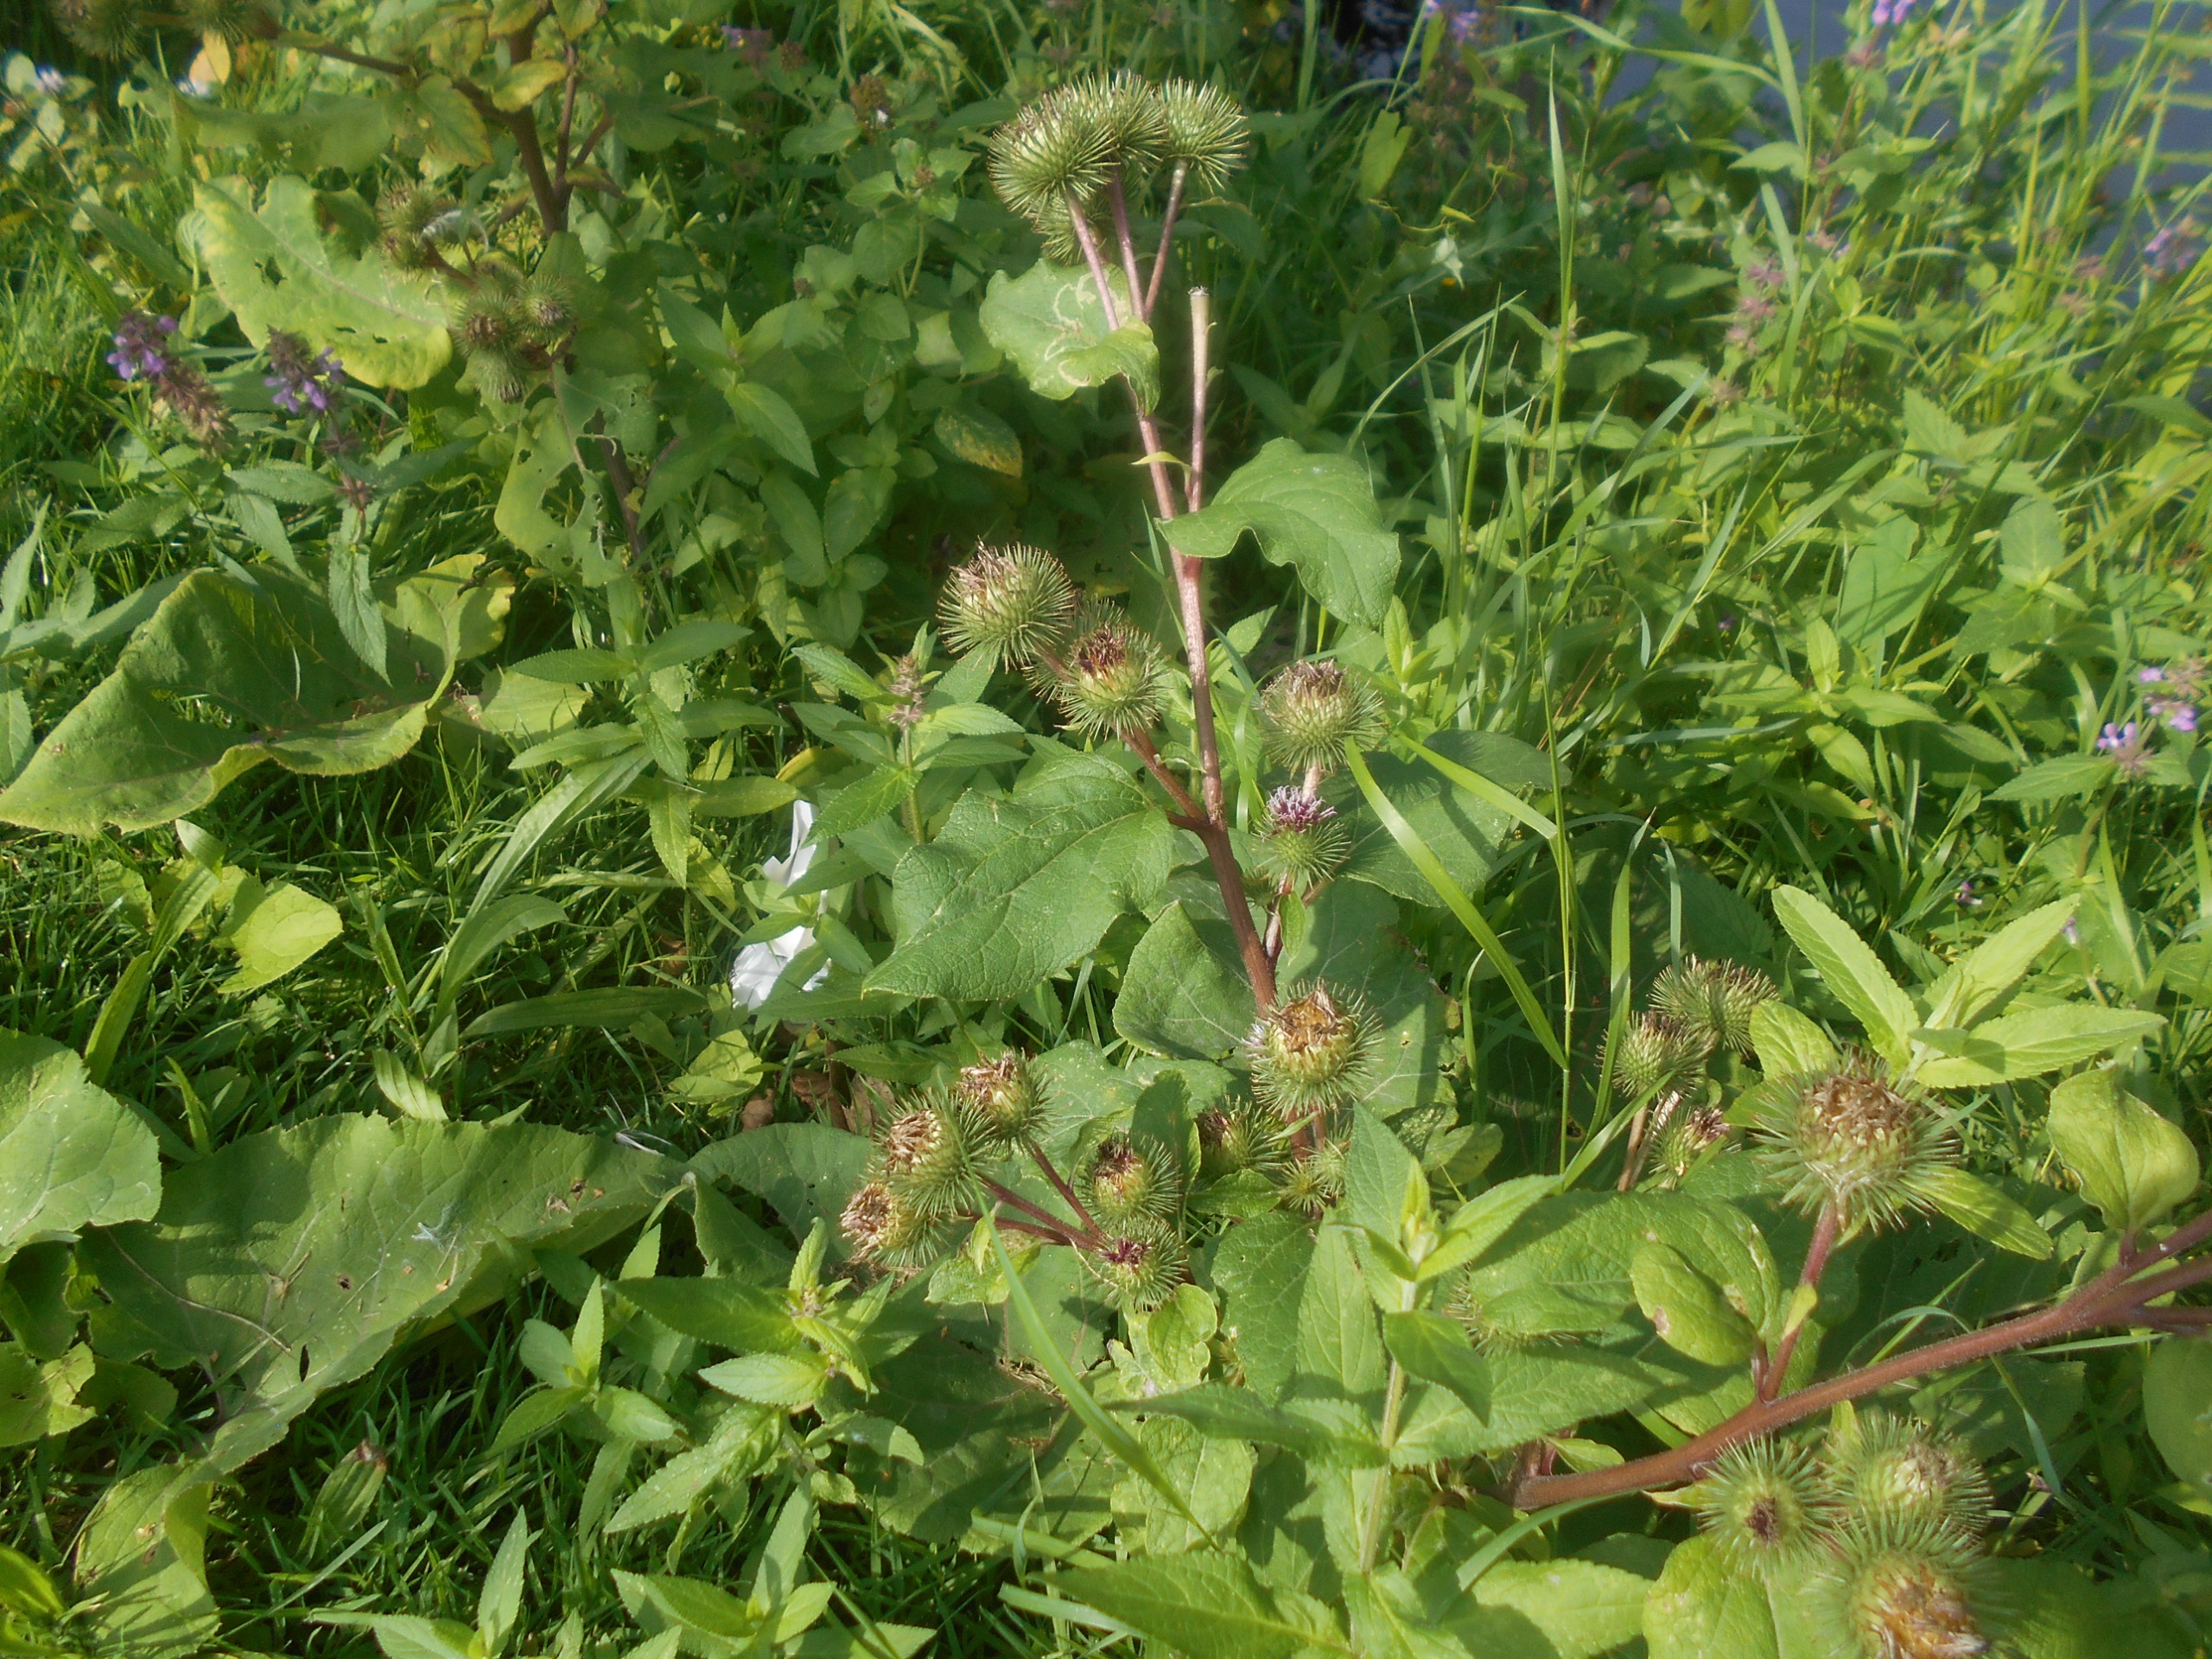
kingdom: Plantae
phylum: Tracheophyta
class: Magnoliopsida
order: Asterales
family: Asteraceae
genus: Arctium
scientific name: Arctium lappa
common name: Glat burre
